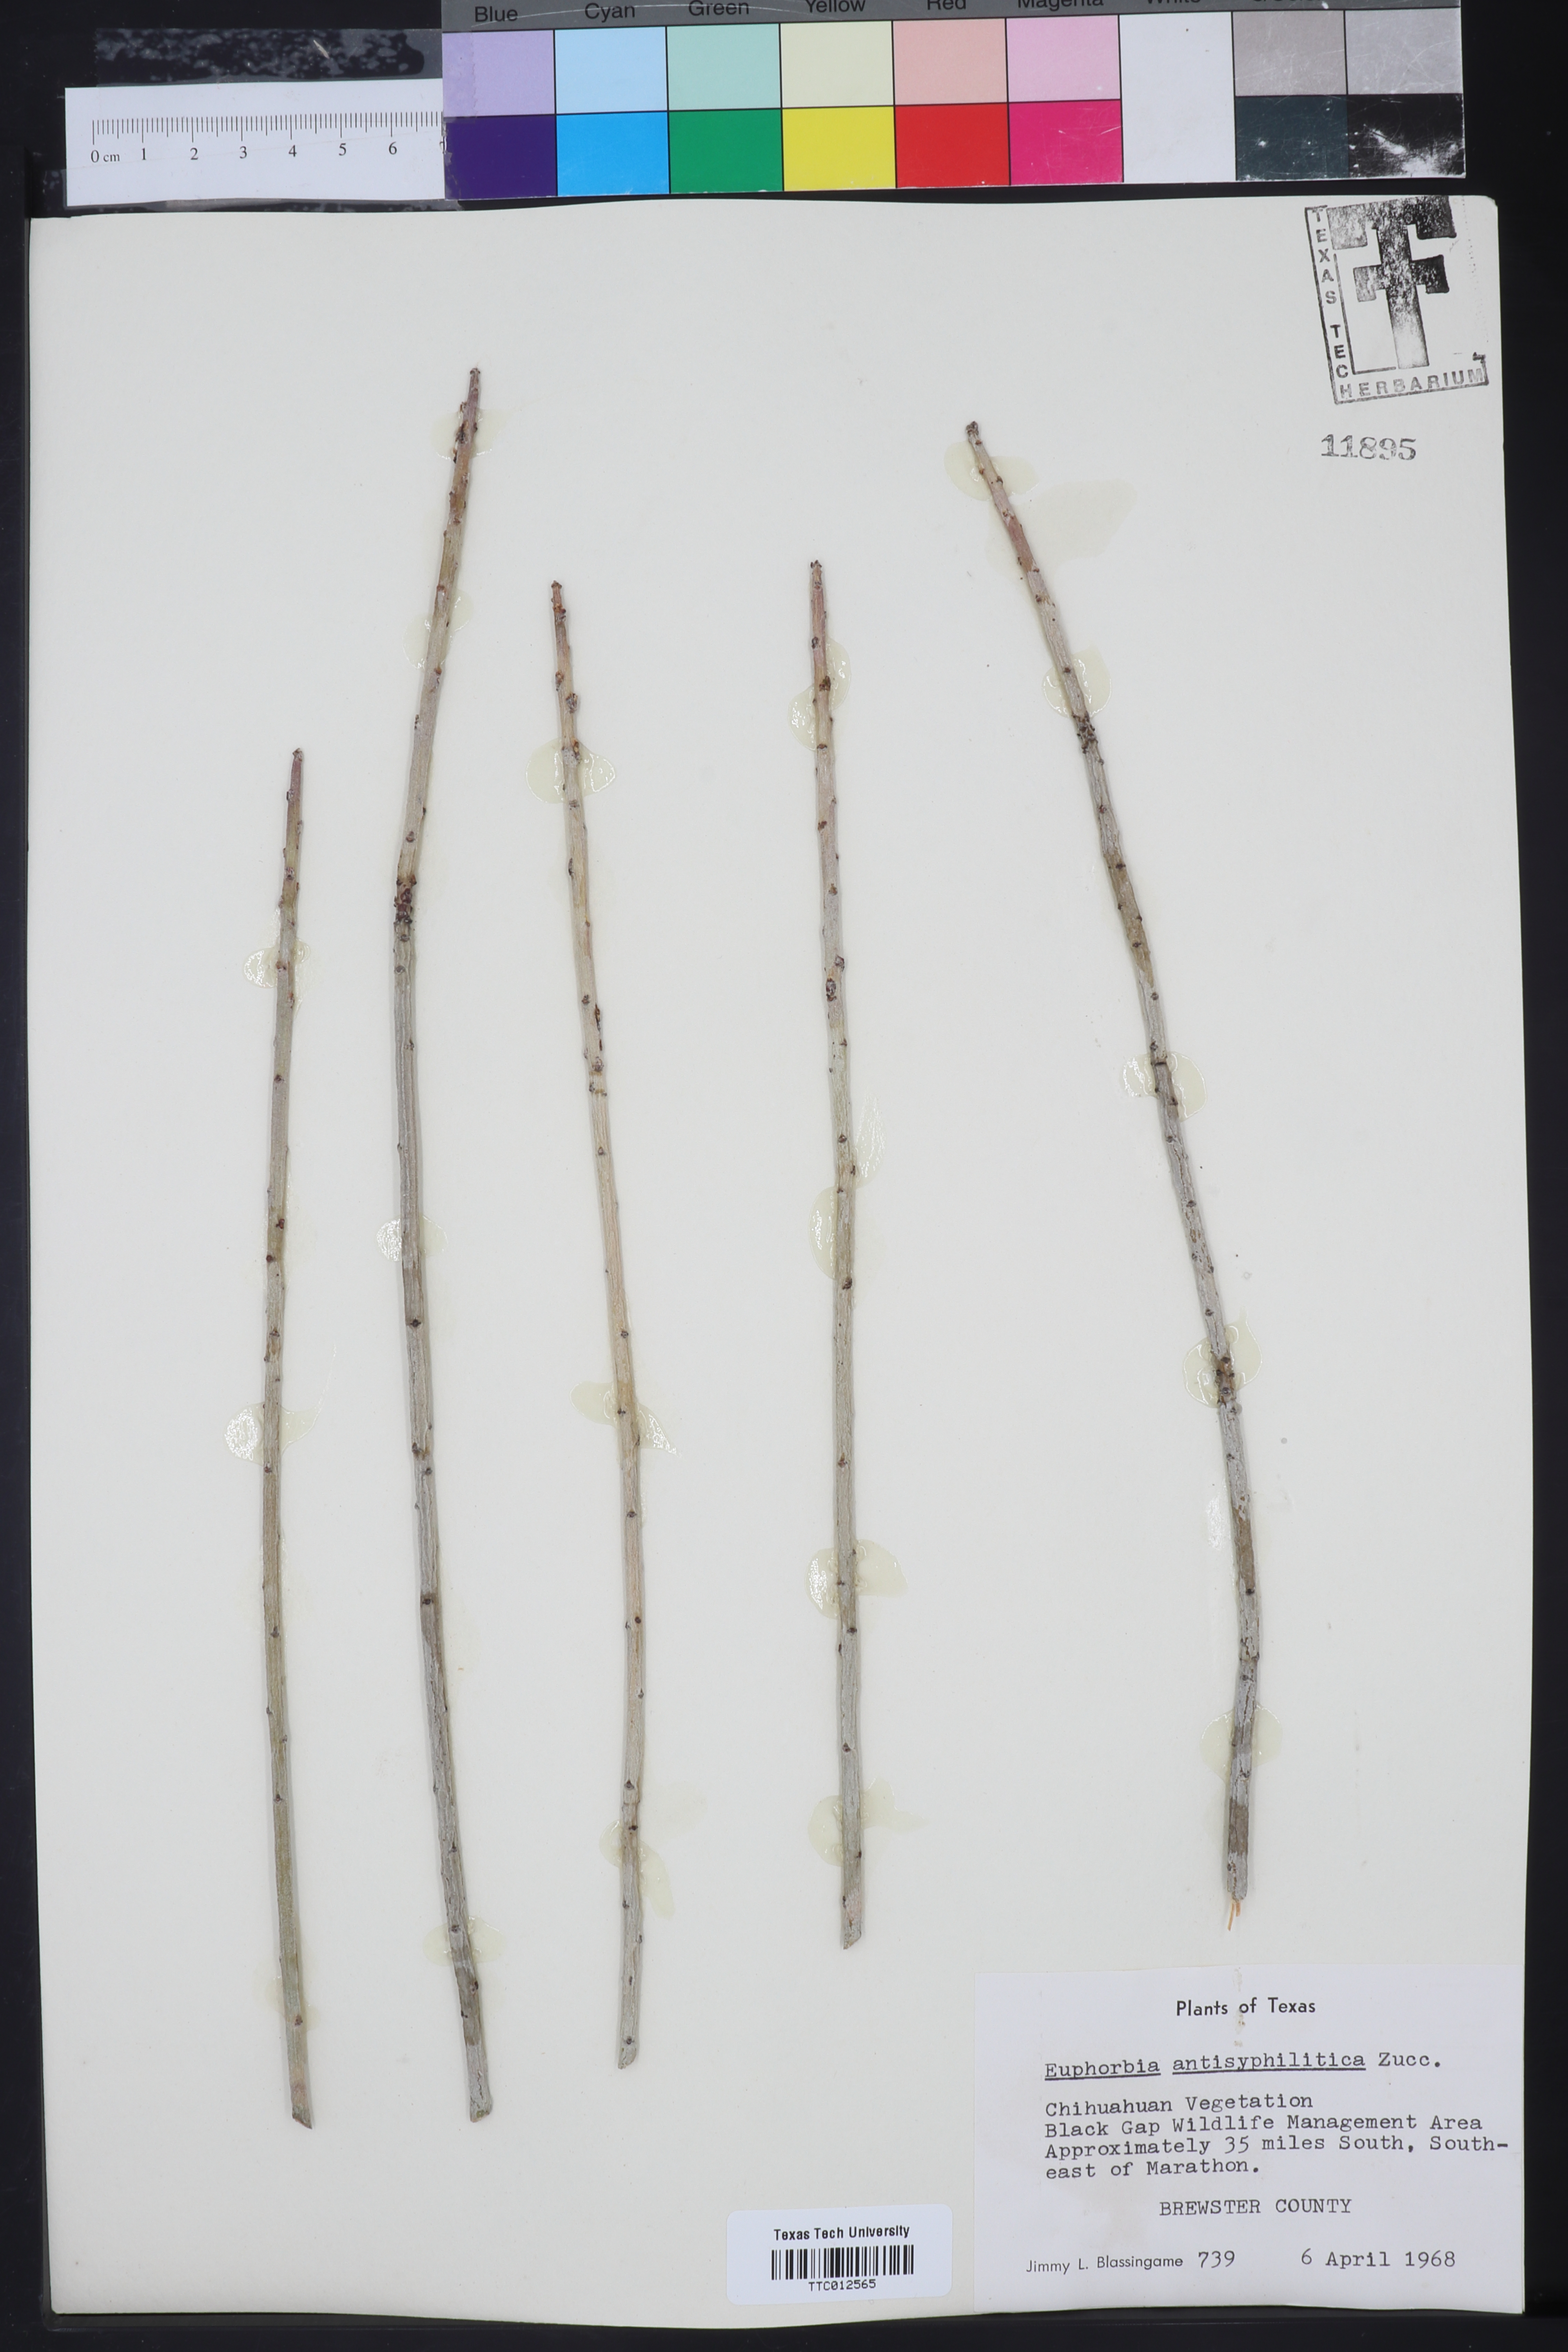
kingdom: Plantae
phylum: Tracheophyta
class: Magnoliopsida
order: Malpighiales
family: Euphorbiaceae
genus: Euphorbia
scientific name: Euphorbia antisyphilitica
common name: Candelilla
